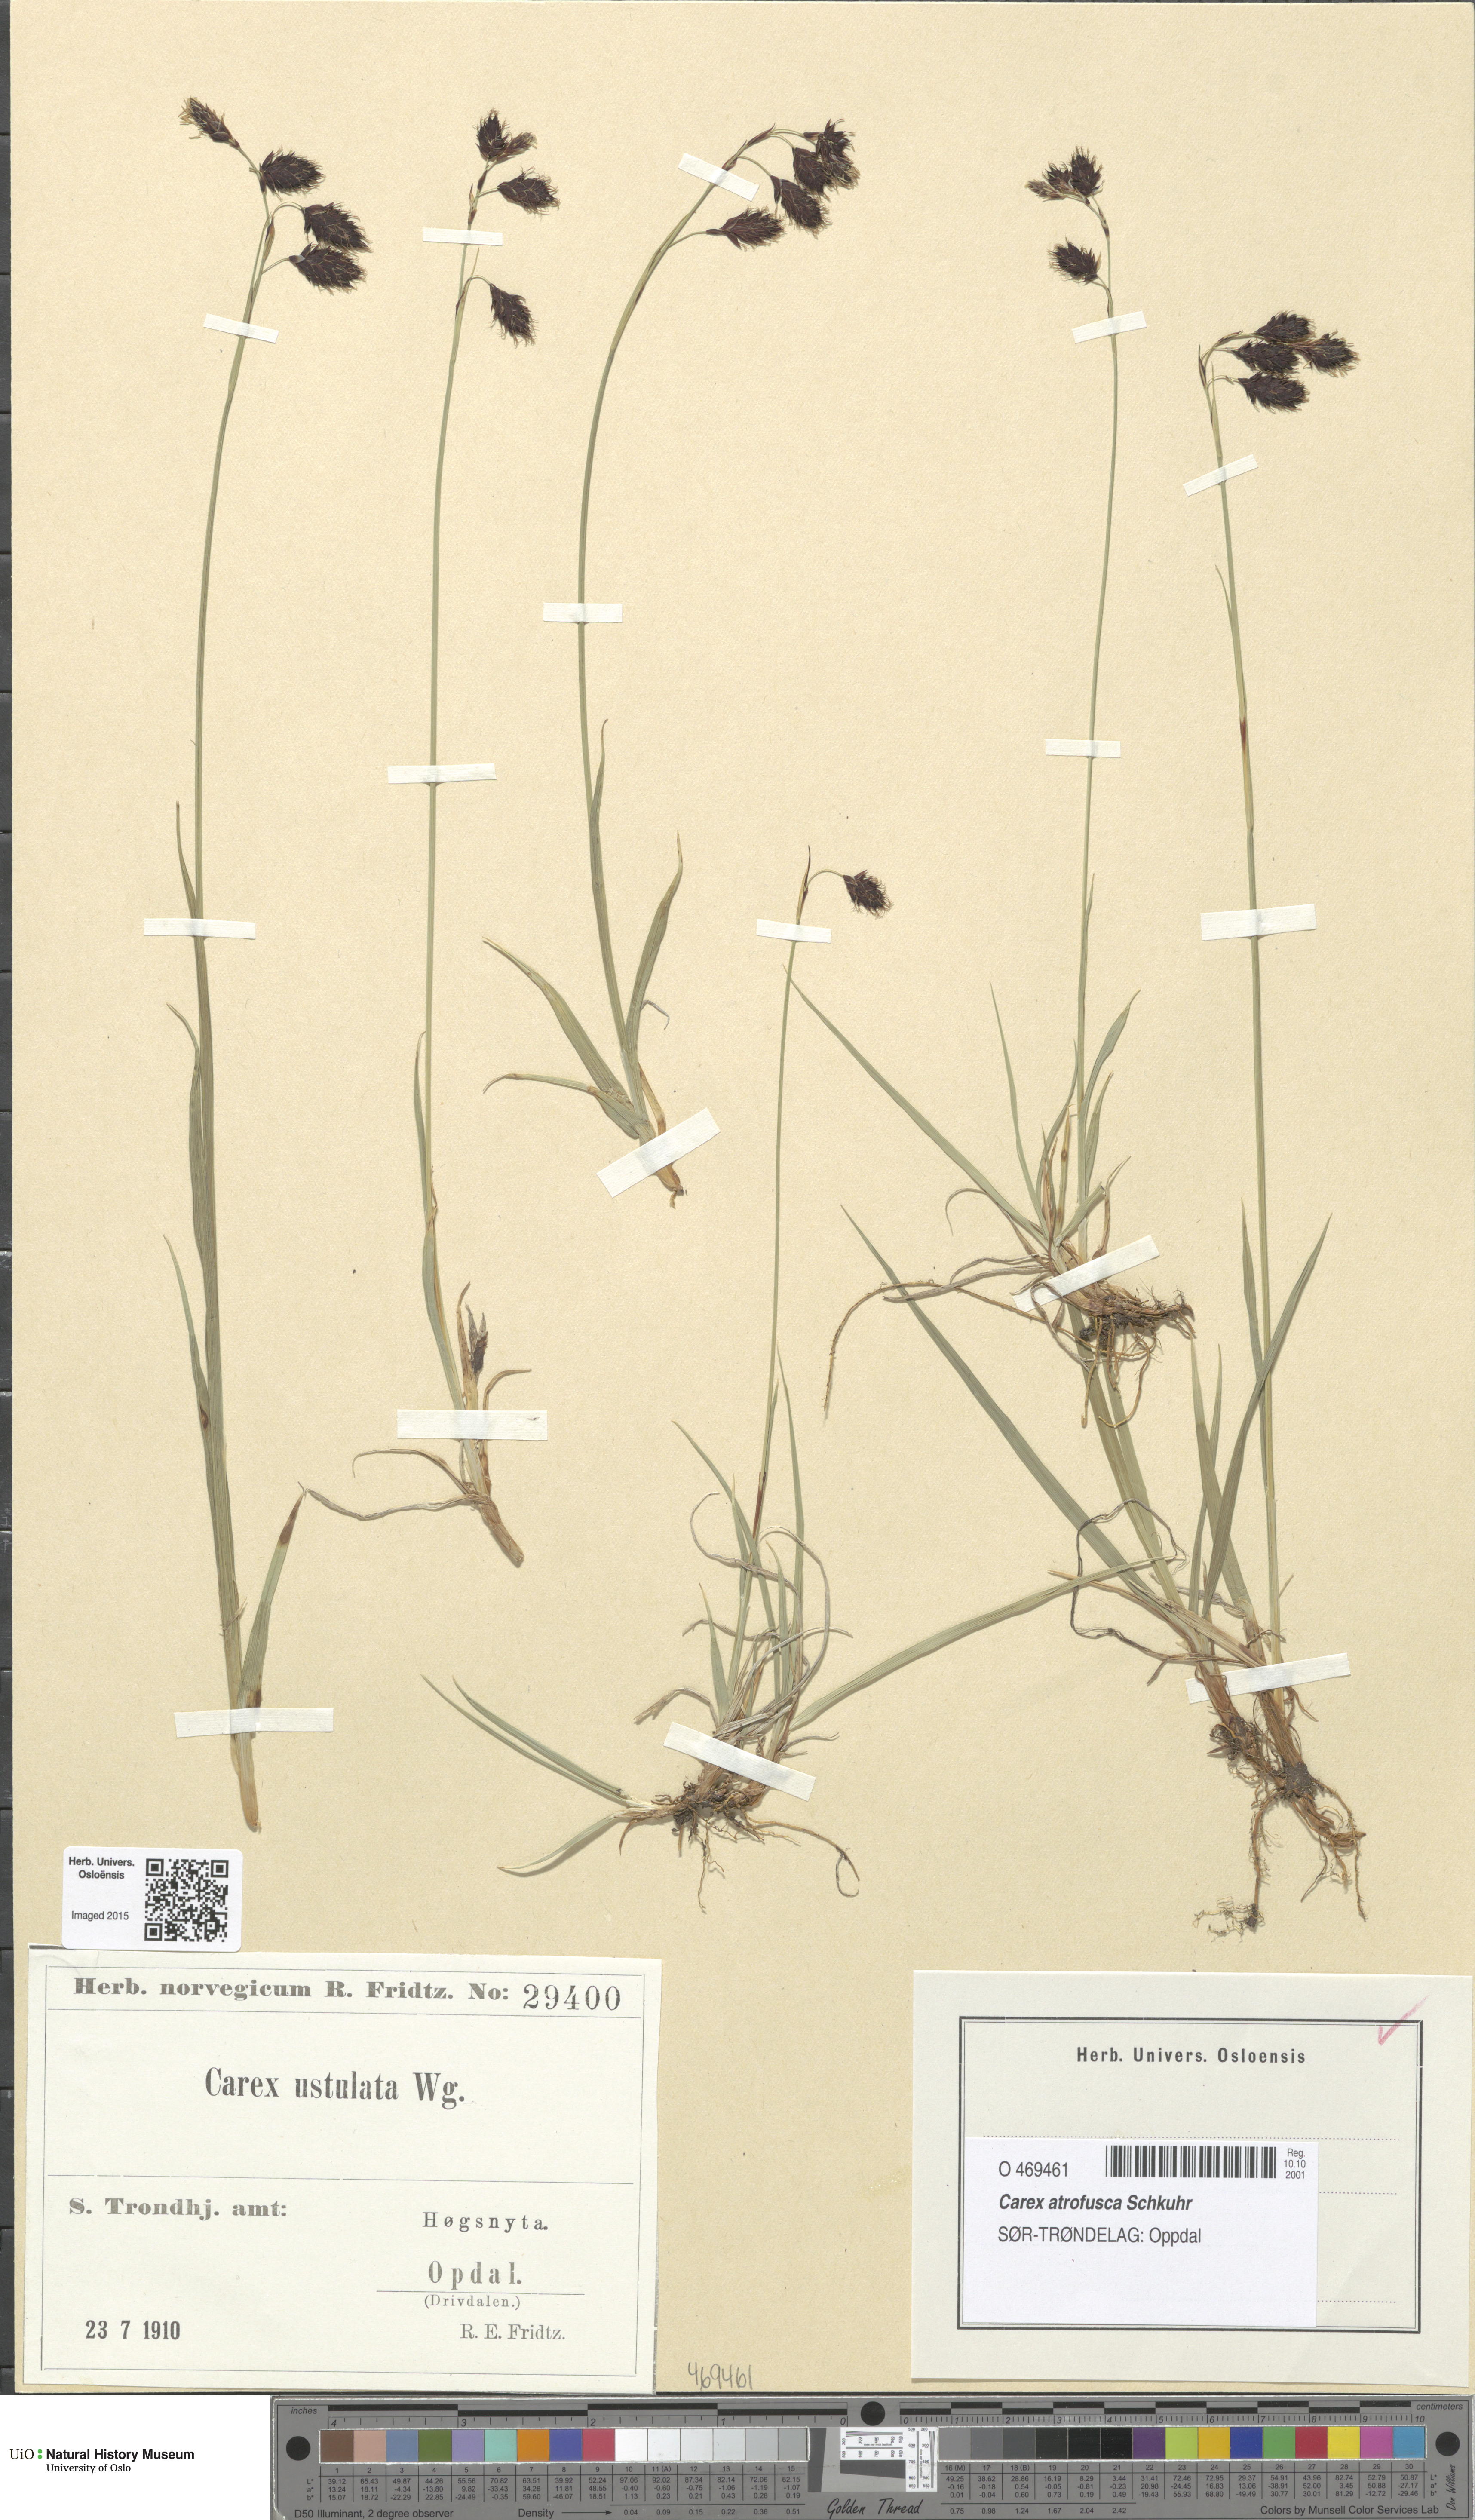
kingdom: Plantae
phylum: Tracheophyta
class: Liliopsida
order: Poales
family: Cyperaceae
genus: Carex
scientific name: Carex atrofusca
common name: Scorched alpine-sedge
